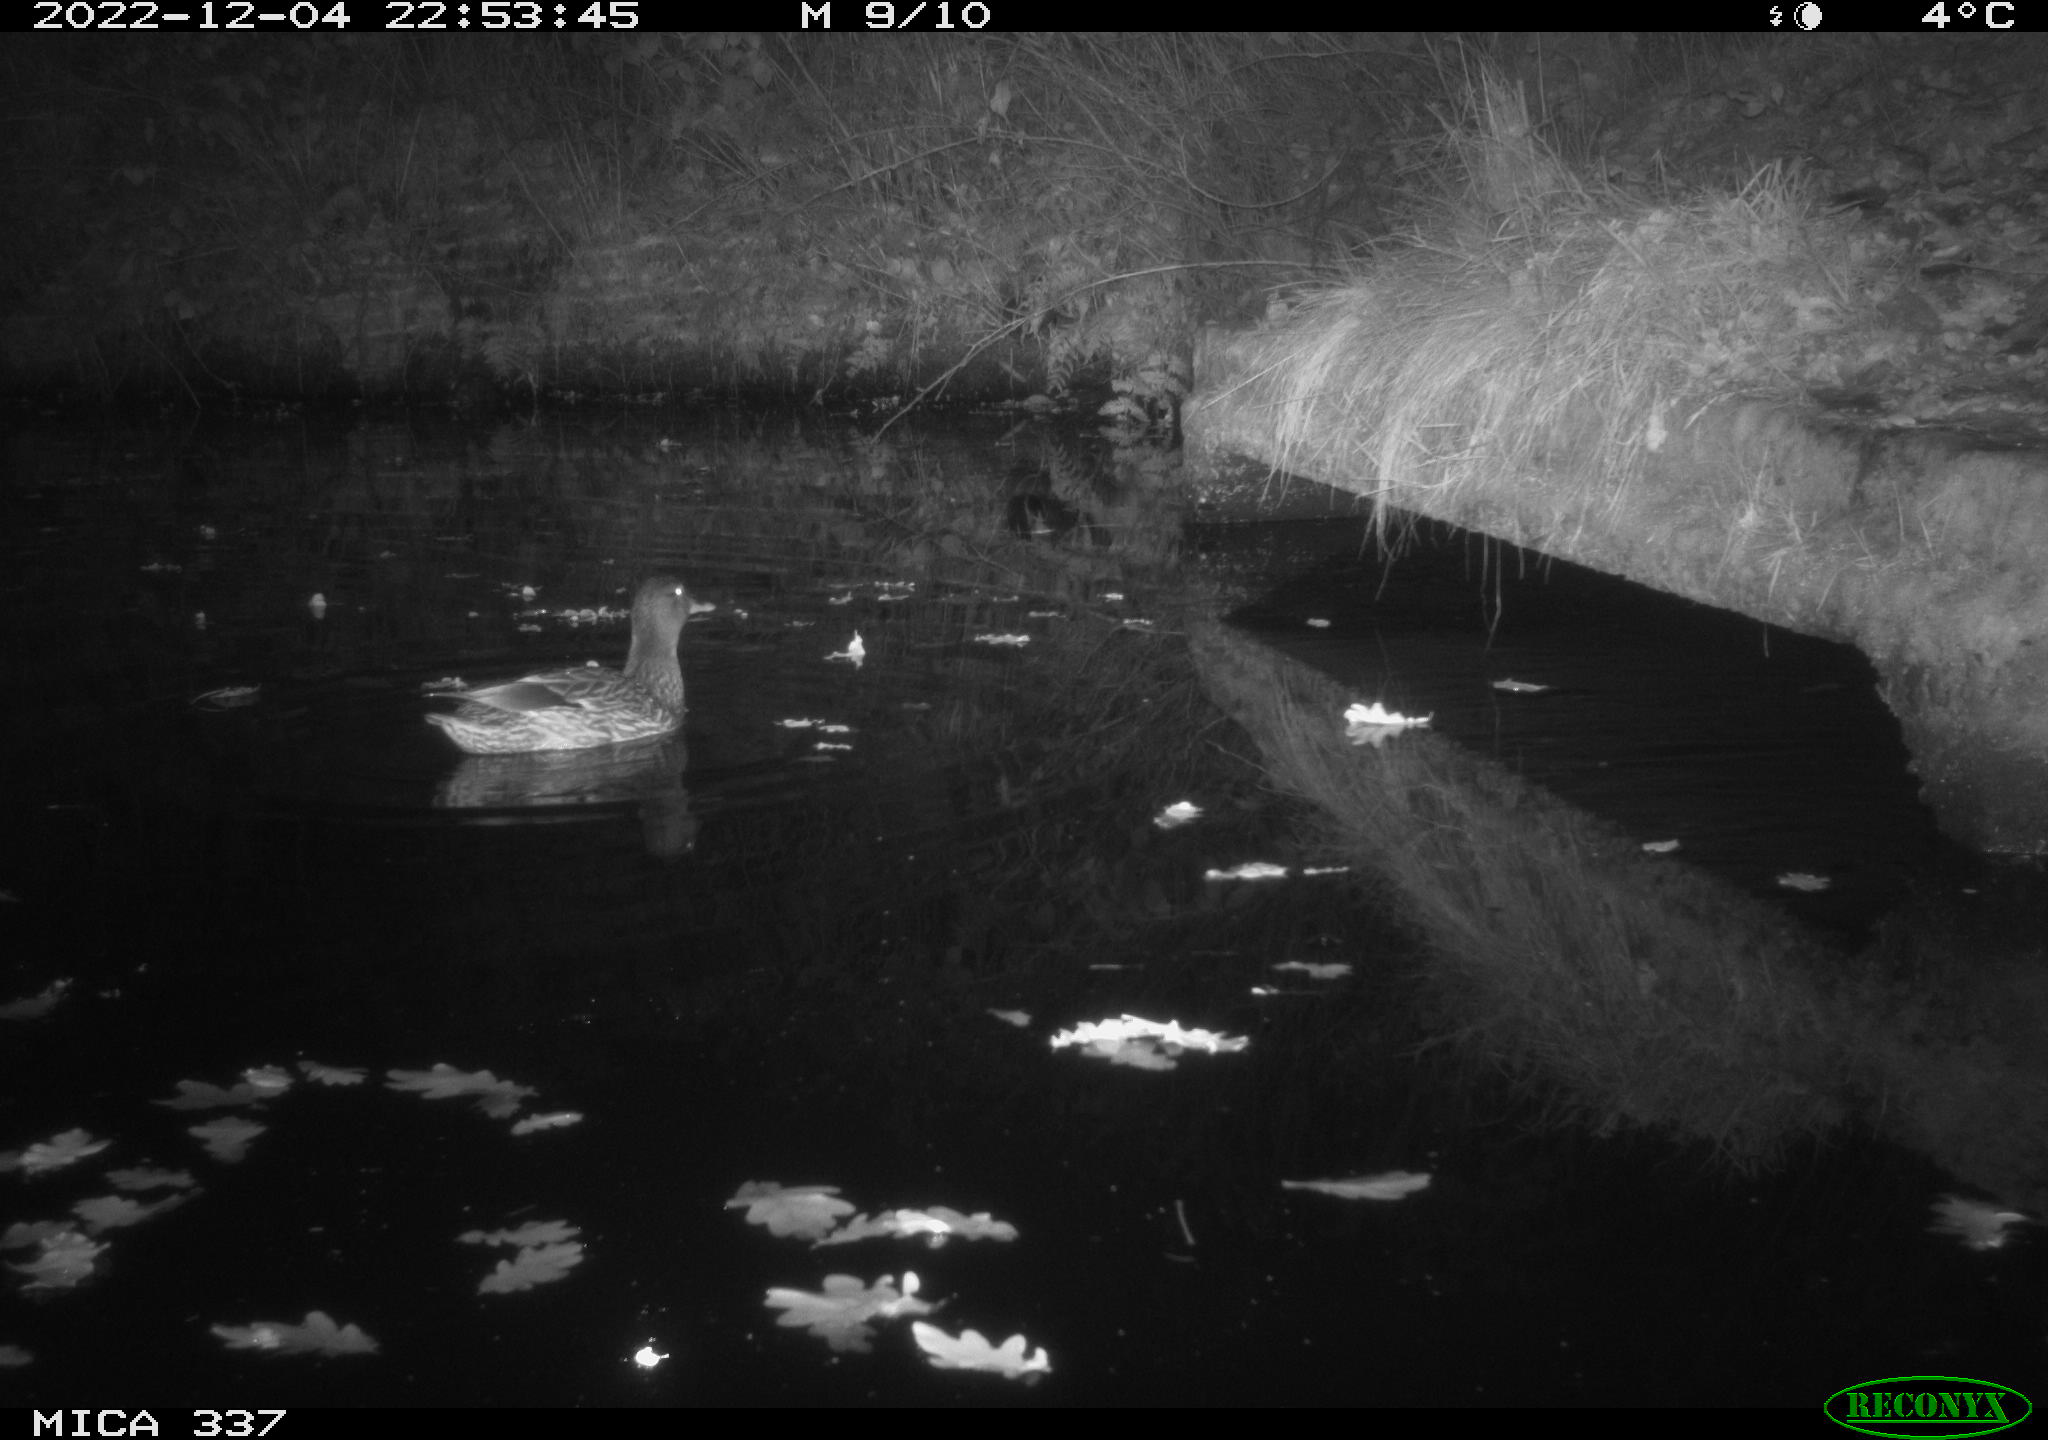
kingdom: Animalia
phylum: Chordata
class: Aves
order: Anseriformes
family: Anatidae
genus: Anas
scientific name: Anas platyrhynchos
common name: Mallard
